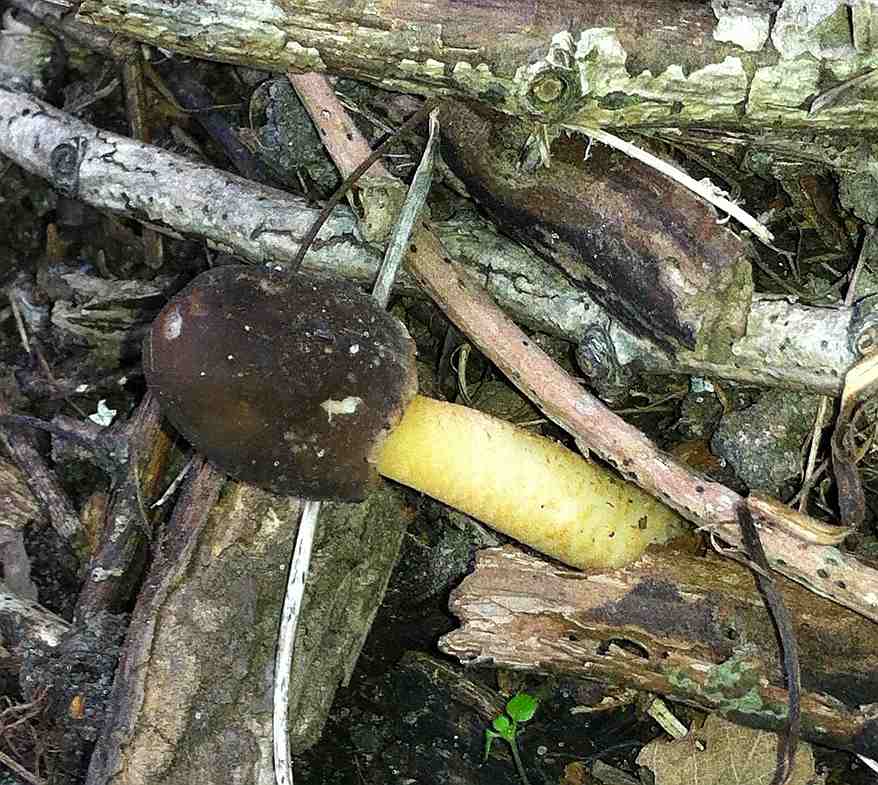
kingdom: Fungi
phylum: Ascomycota
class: Pezizomycetes
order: Pezizales
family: Morchellaceae
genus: Verpa
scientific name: Verpa conica
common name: glat klokkemorkel
